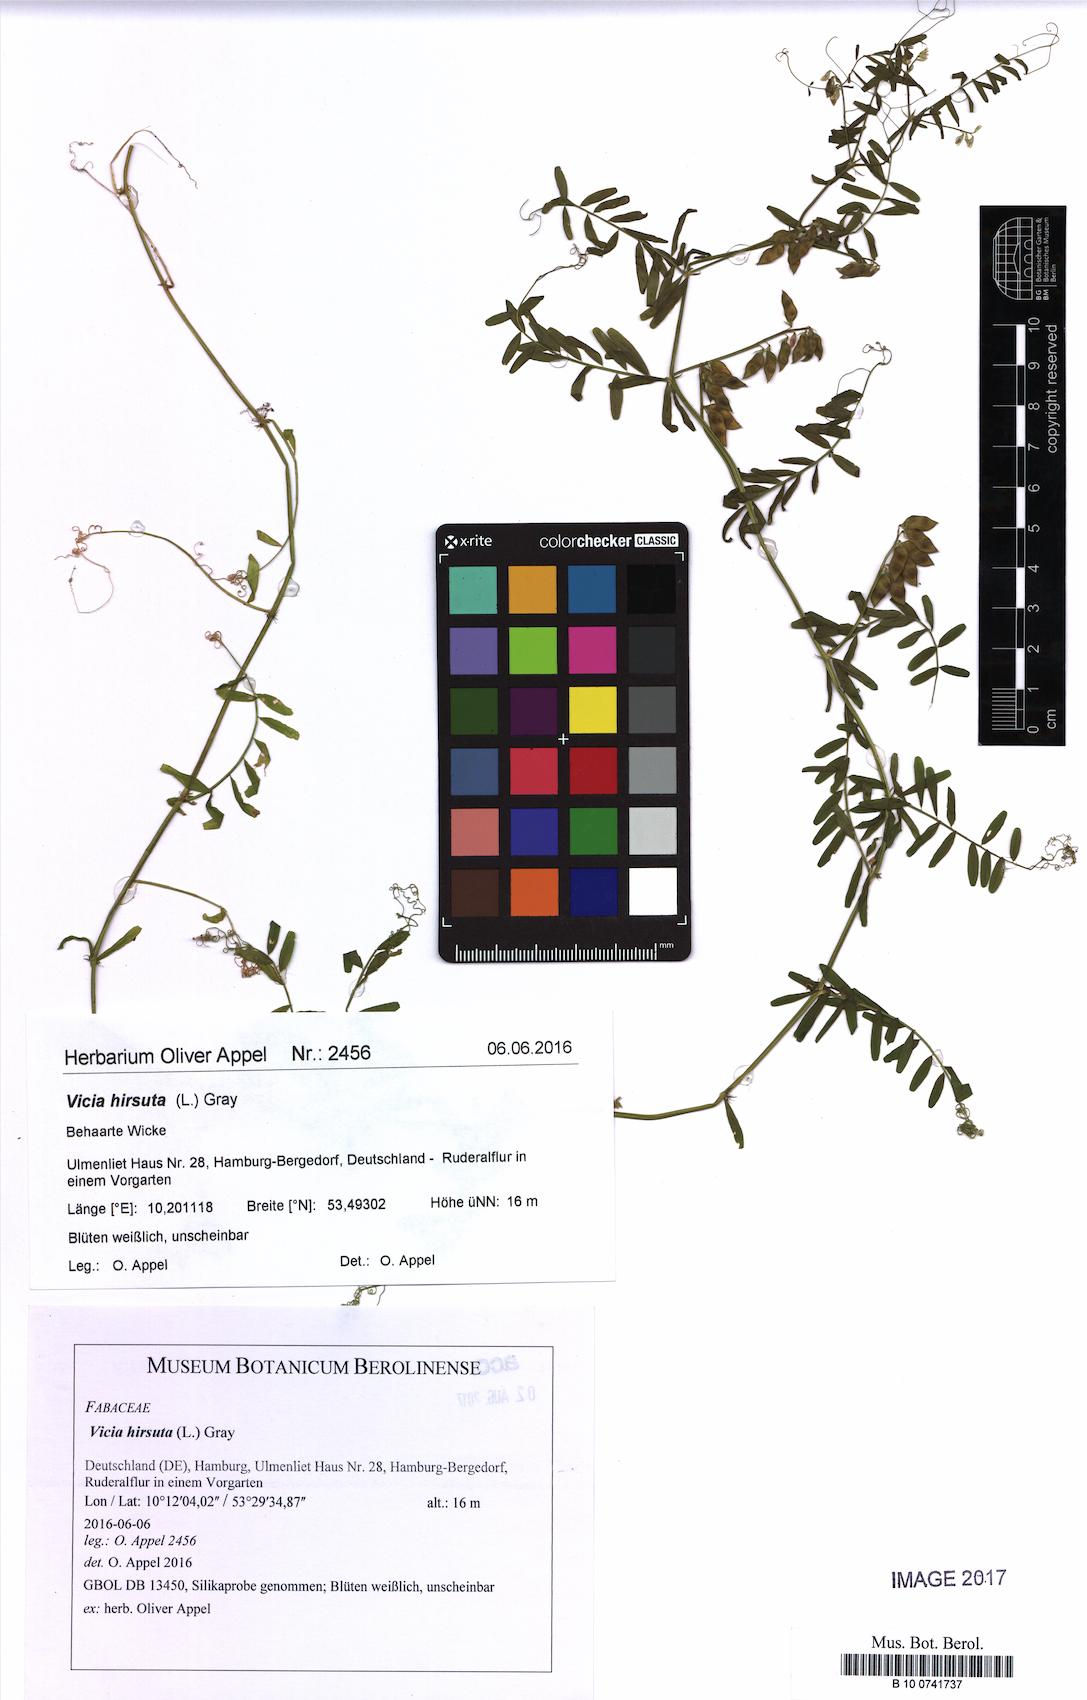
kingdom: Plantae
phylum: Tracheophyta
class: Magnoliopsida
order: Fabales
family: Fabaceae
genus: Vicia
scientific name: Vicia hirsuta
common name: Tiny vetch
